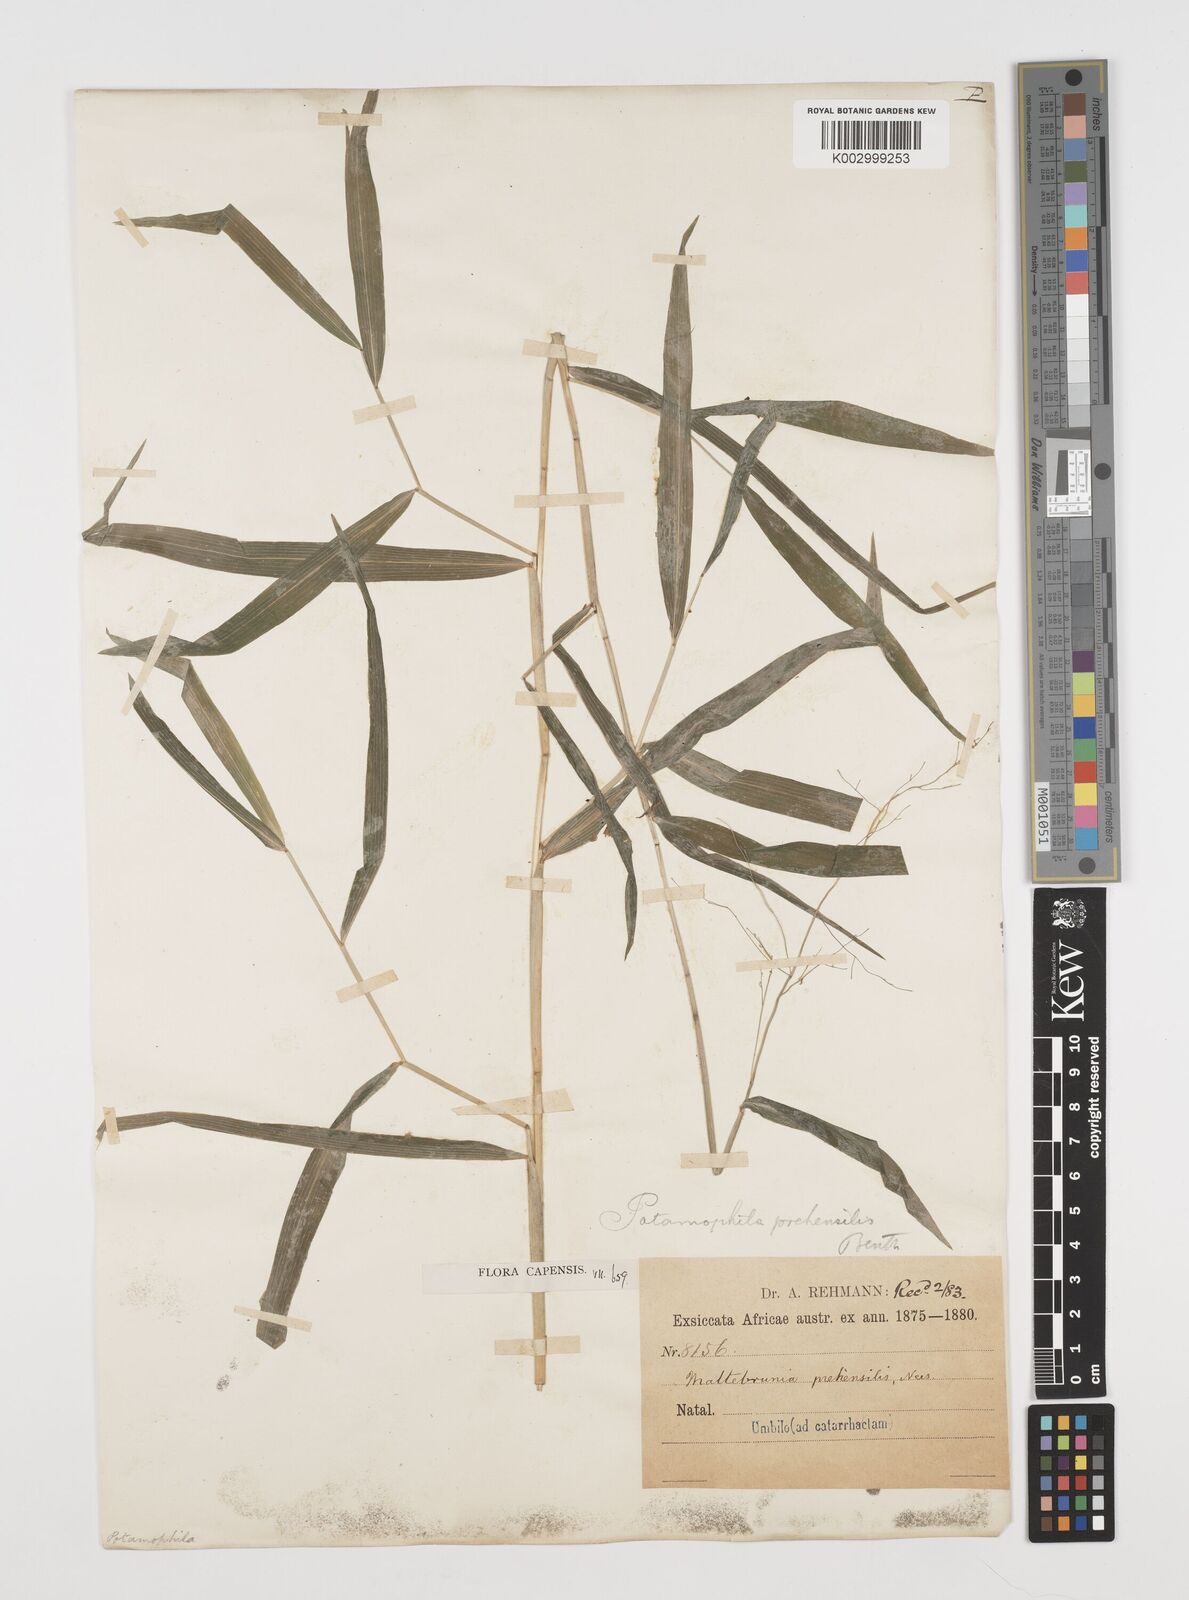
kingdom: Plantae
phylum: Tracheophyta
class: Liliopsida
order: Poales
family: Poaceae
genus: Prosphytochloa
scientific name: Prosphytochloa prehensilis
